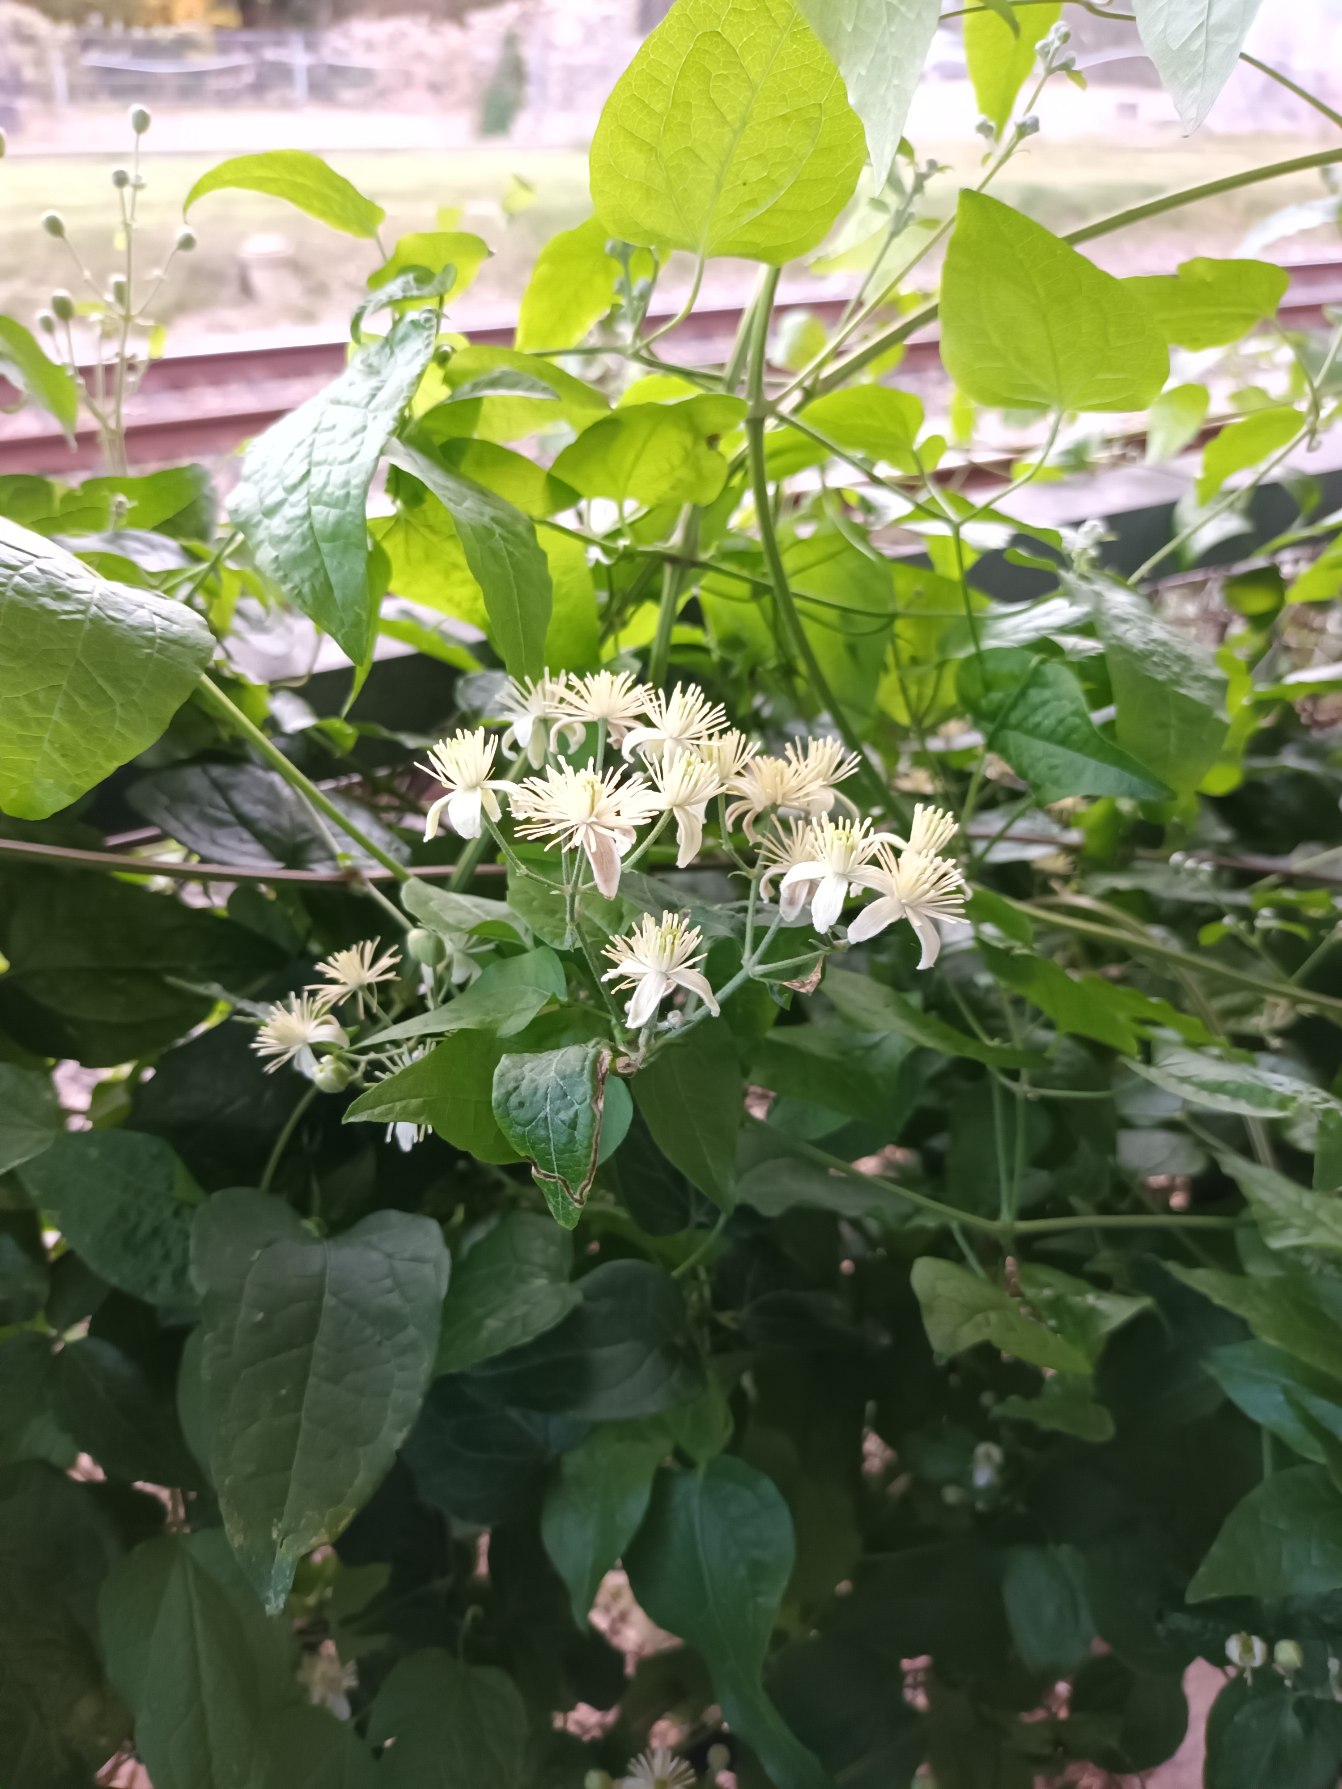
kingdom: Plantae
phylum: Tracheophyta
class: Magnoliopsida
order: Ranunculales
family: Ranunculaceae
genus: Clematis
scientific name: Clematis vitalba
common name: Skovranke
